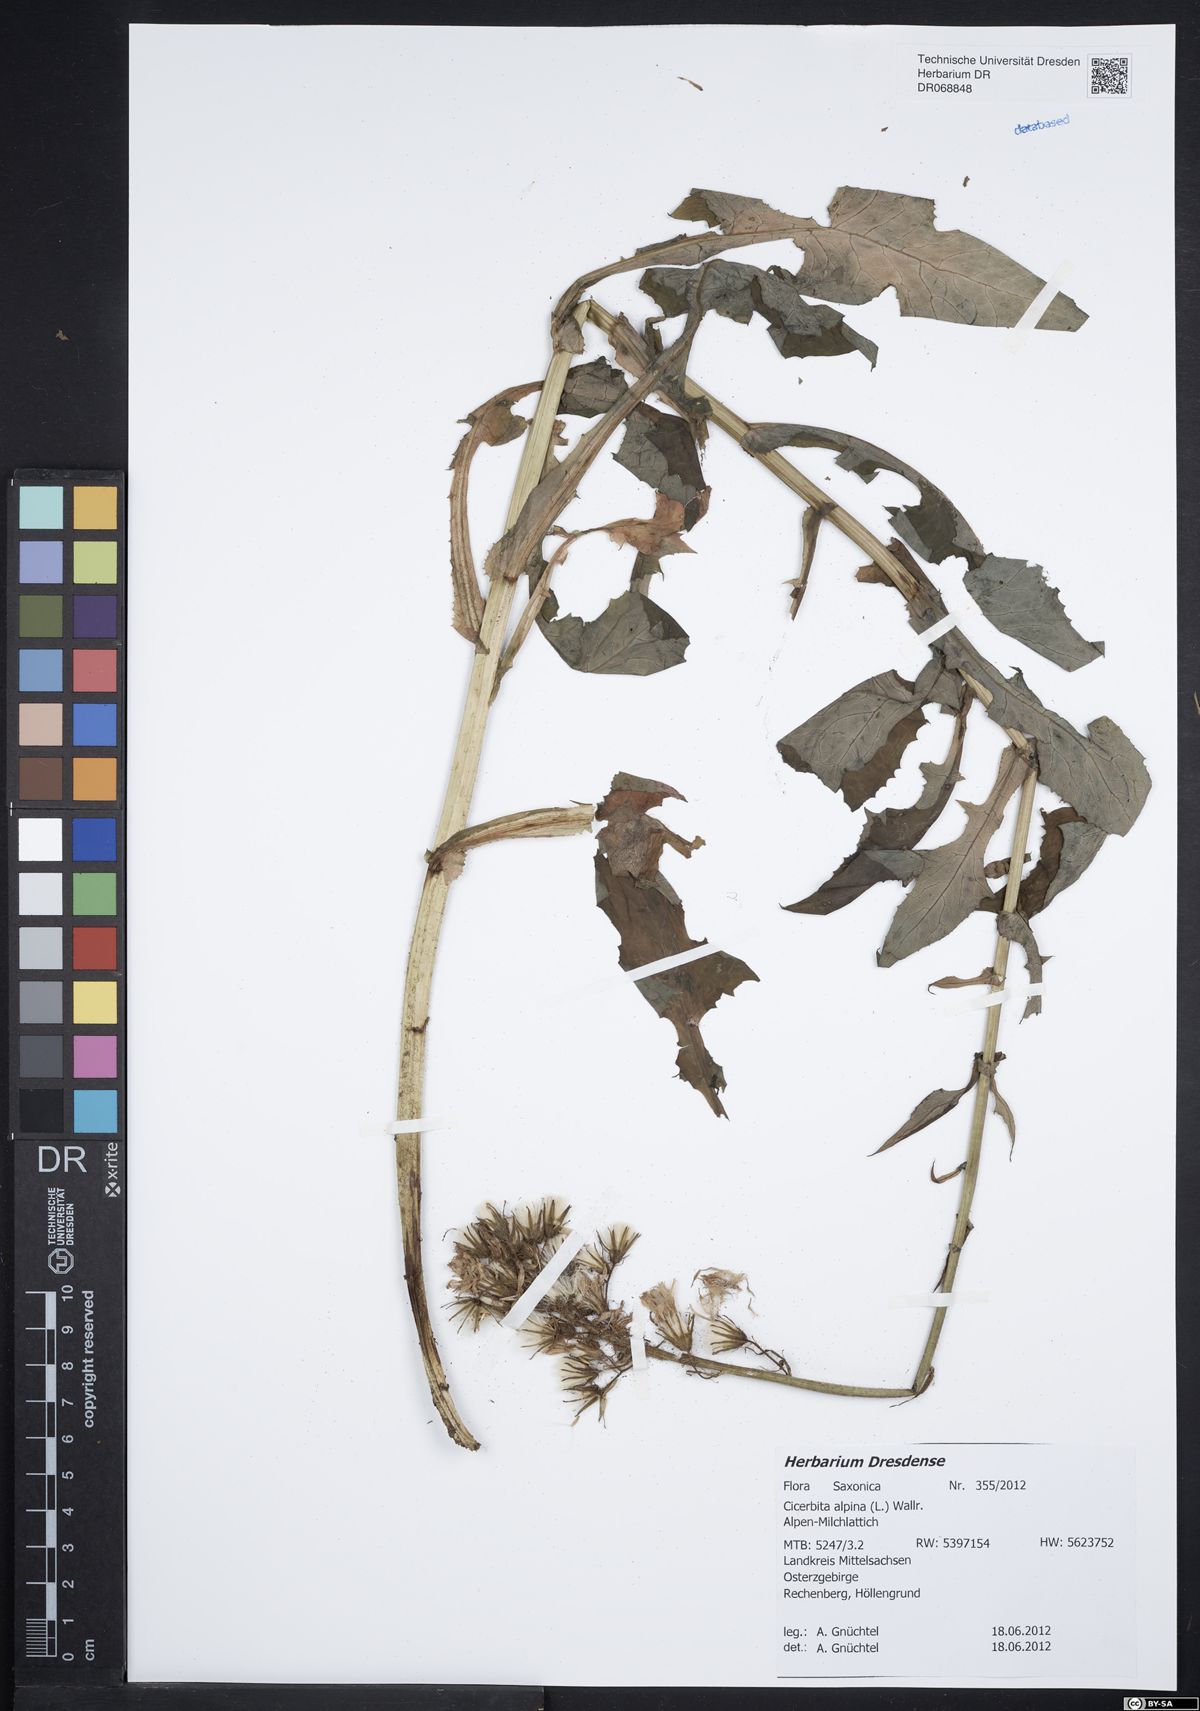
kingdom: Plantae
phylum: Tracheophyta
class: Magnoliopsida
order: Asterales
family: Asteraceae
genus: Cicerbita
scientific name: Cicerbita alpina
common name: Alpine blue-sow-thistle
